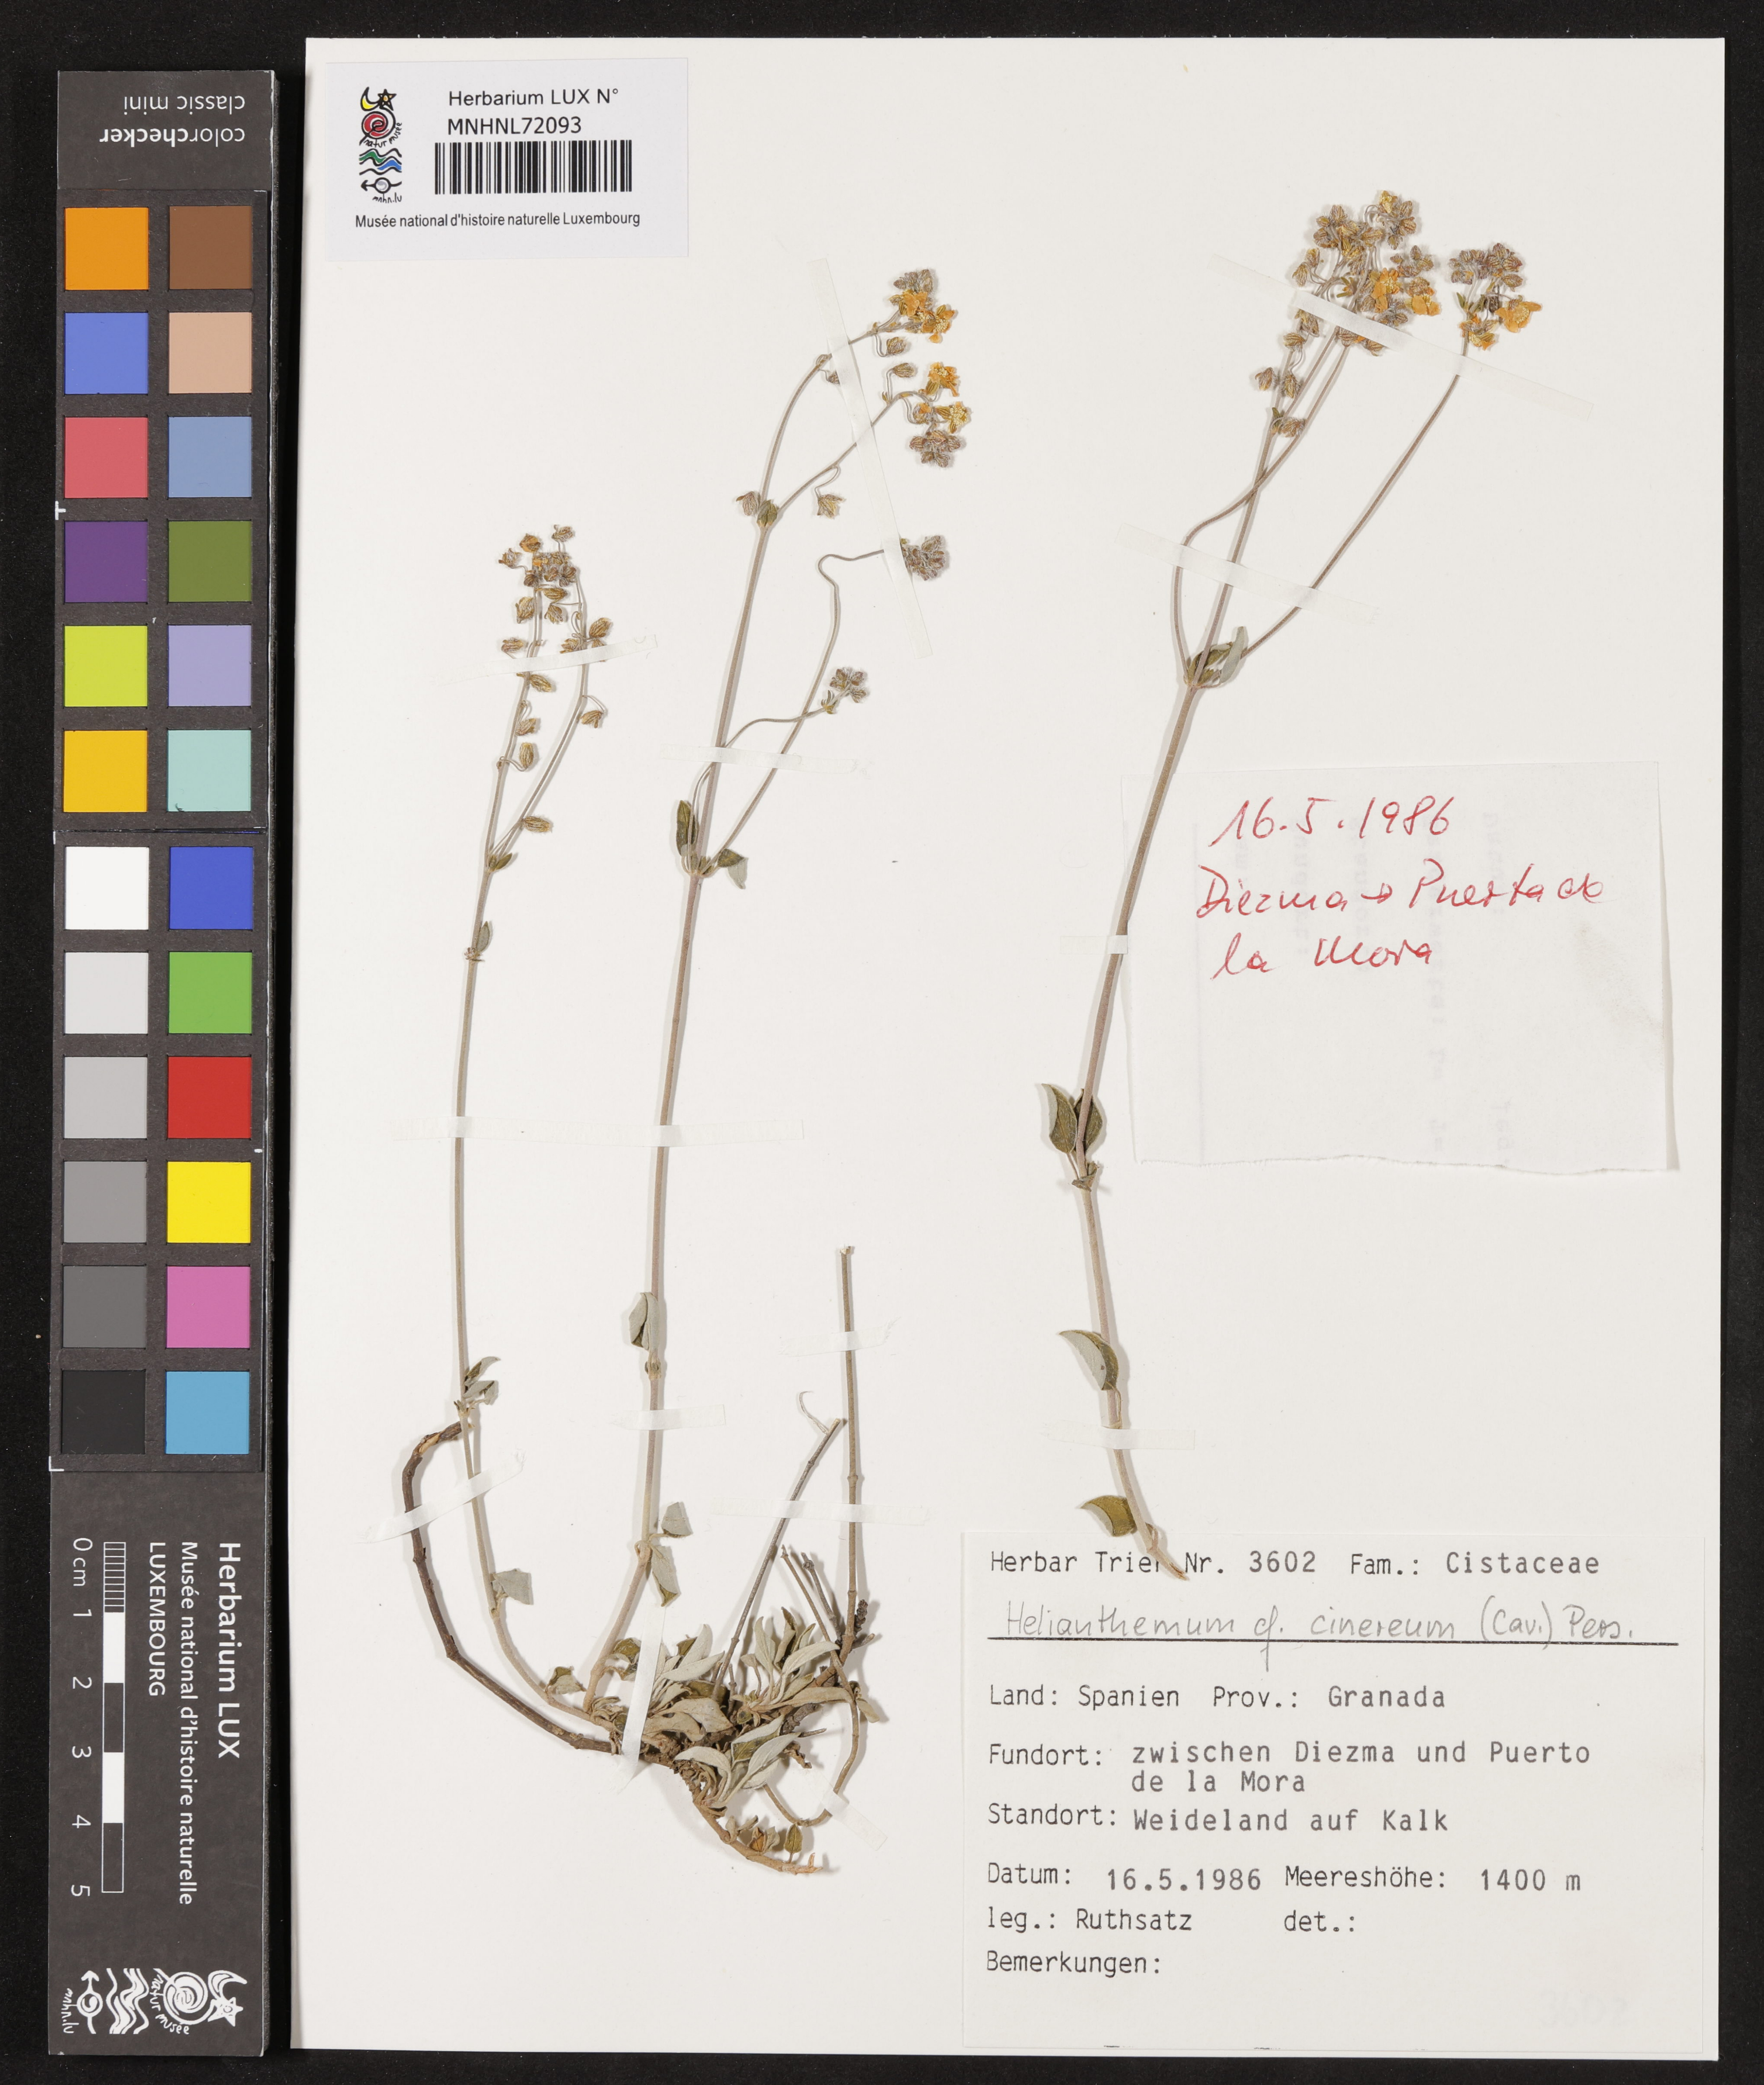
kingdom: Plantae
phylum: Tracheophyta
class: Magnoliopsida
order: Malvales
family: Cistaceae
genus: Helianthemum
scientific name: Helianthemum cinereum
